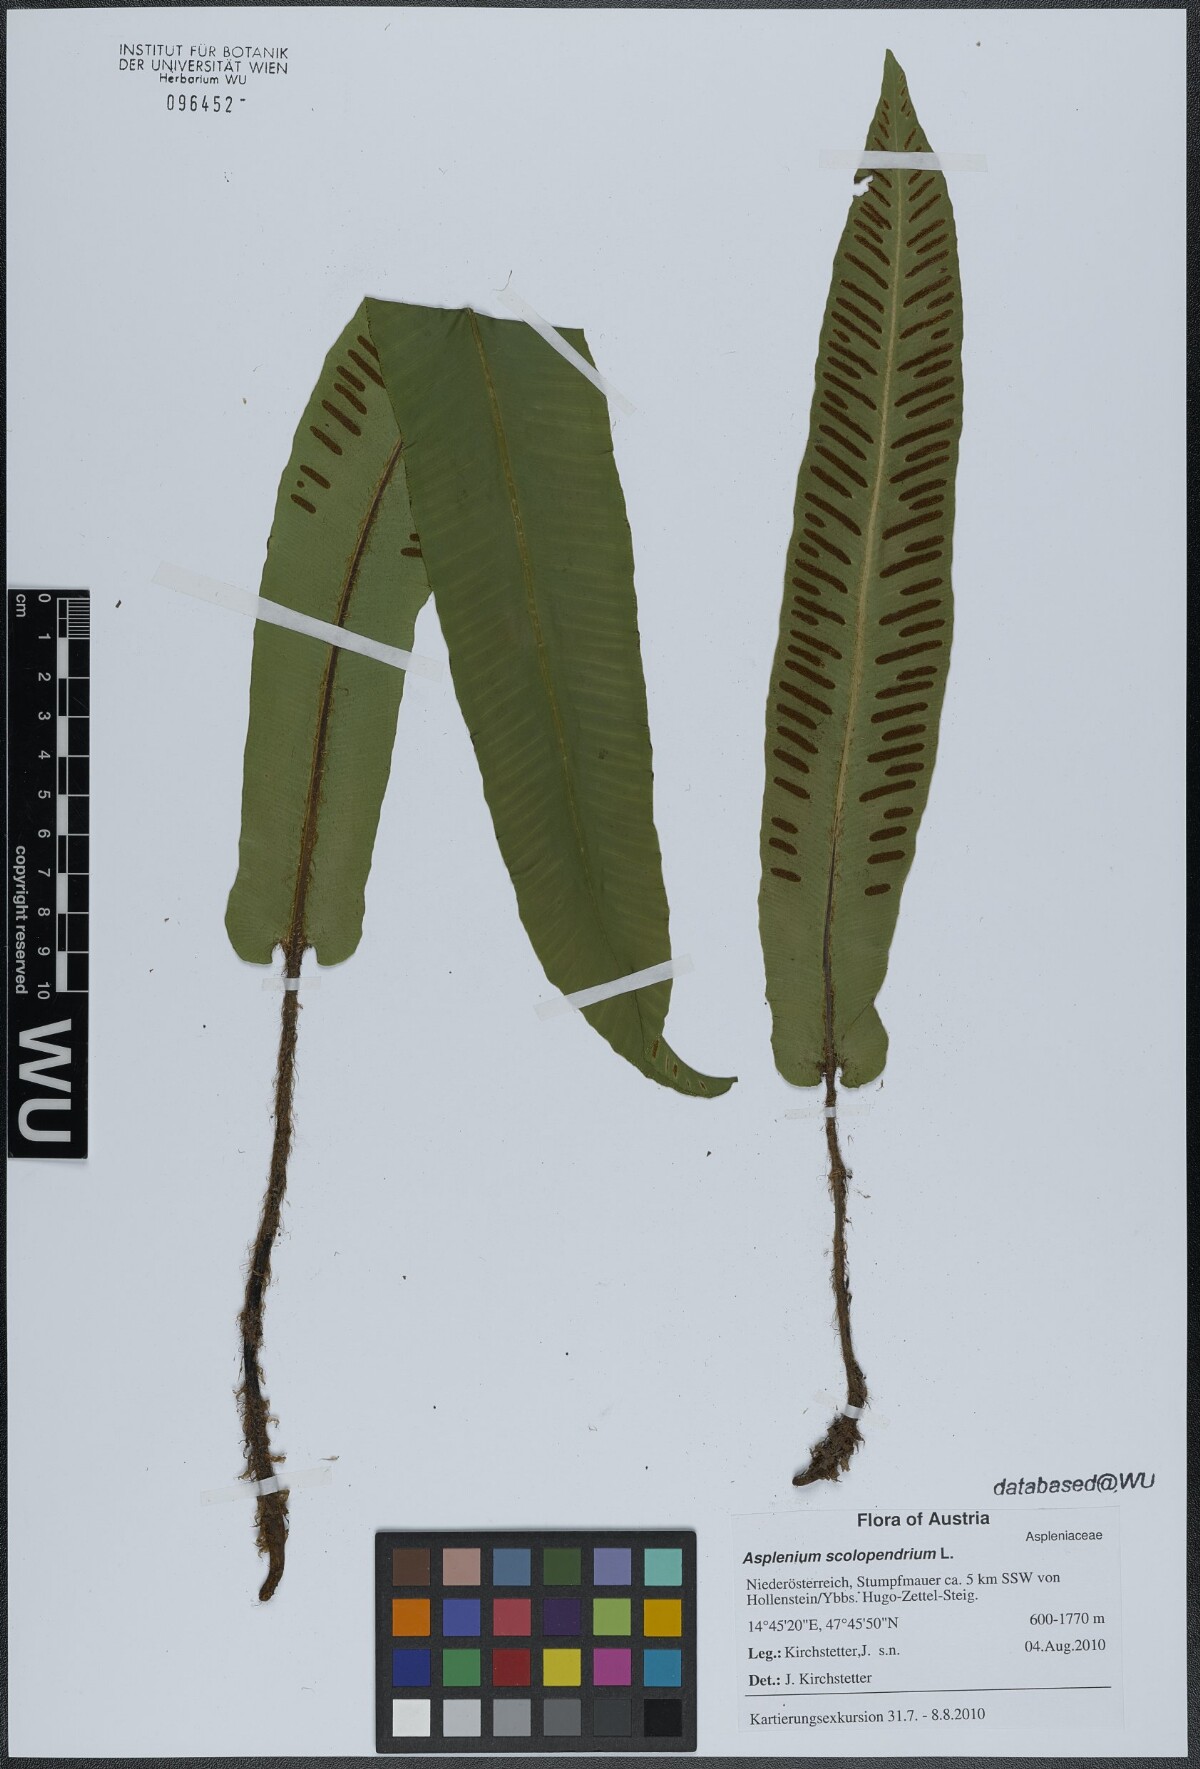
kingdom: Plantae
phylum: Tracheophyta
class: Polypodiopsida
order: Polypodiales
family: Aspleniaceae
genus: Asplenium
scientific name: Asplenium scolopendrium
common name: Hart's-tongue fern
